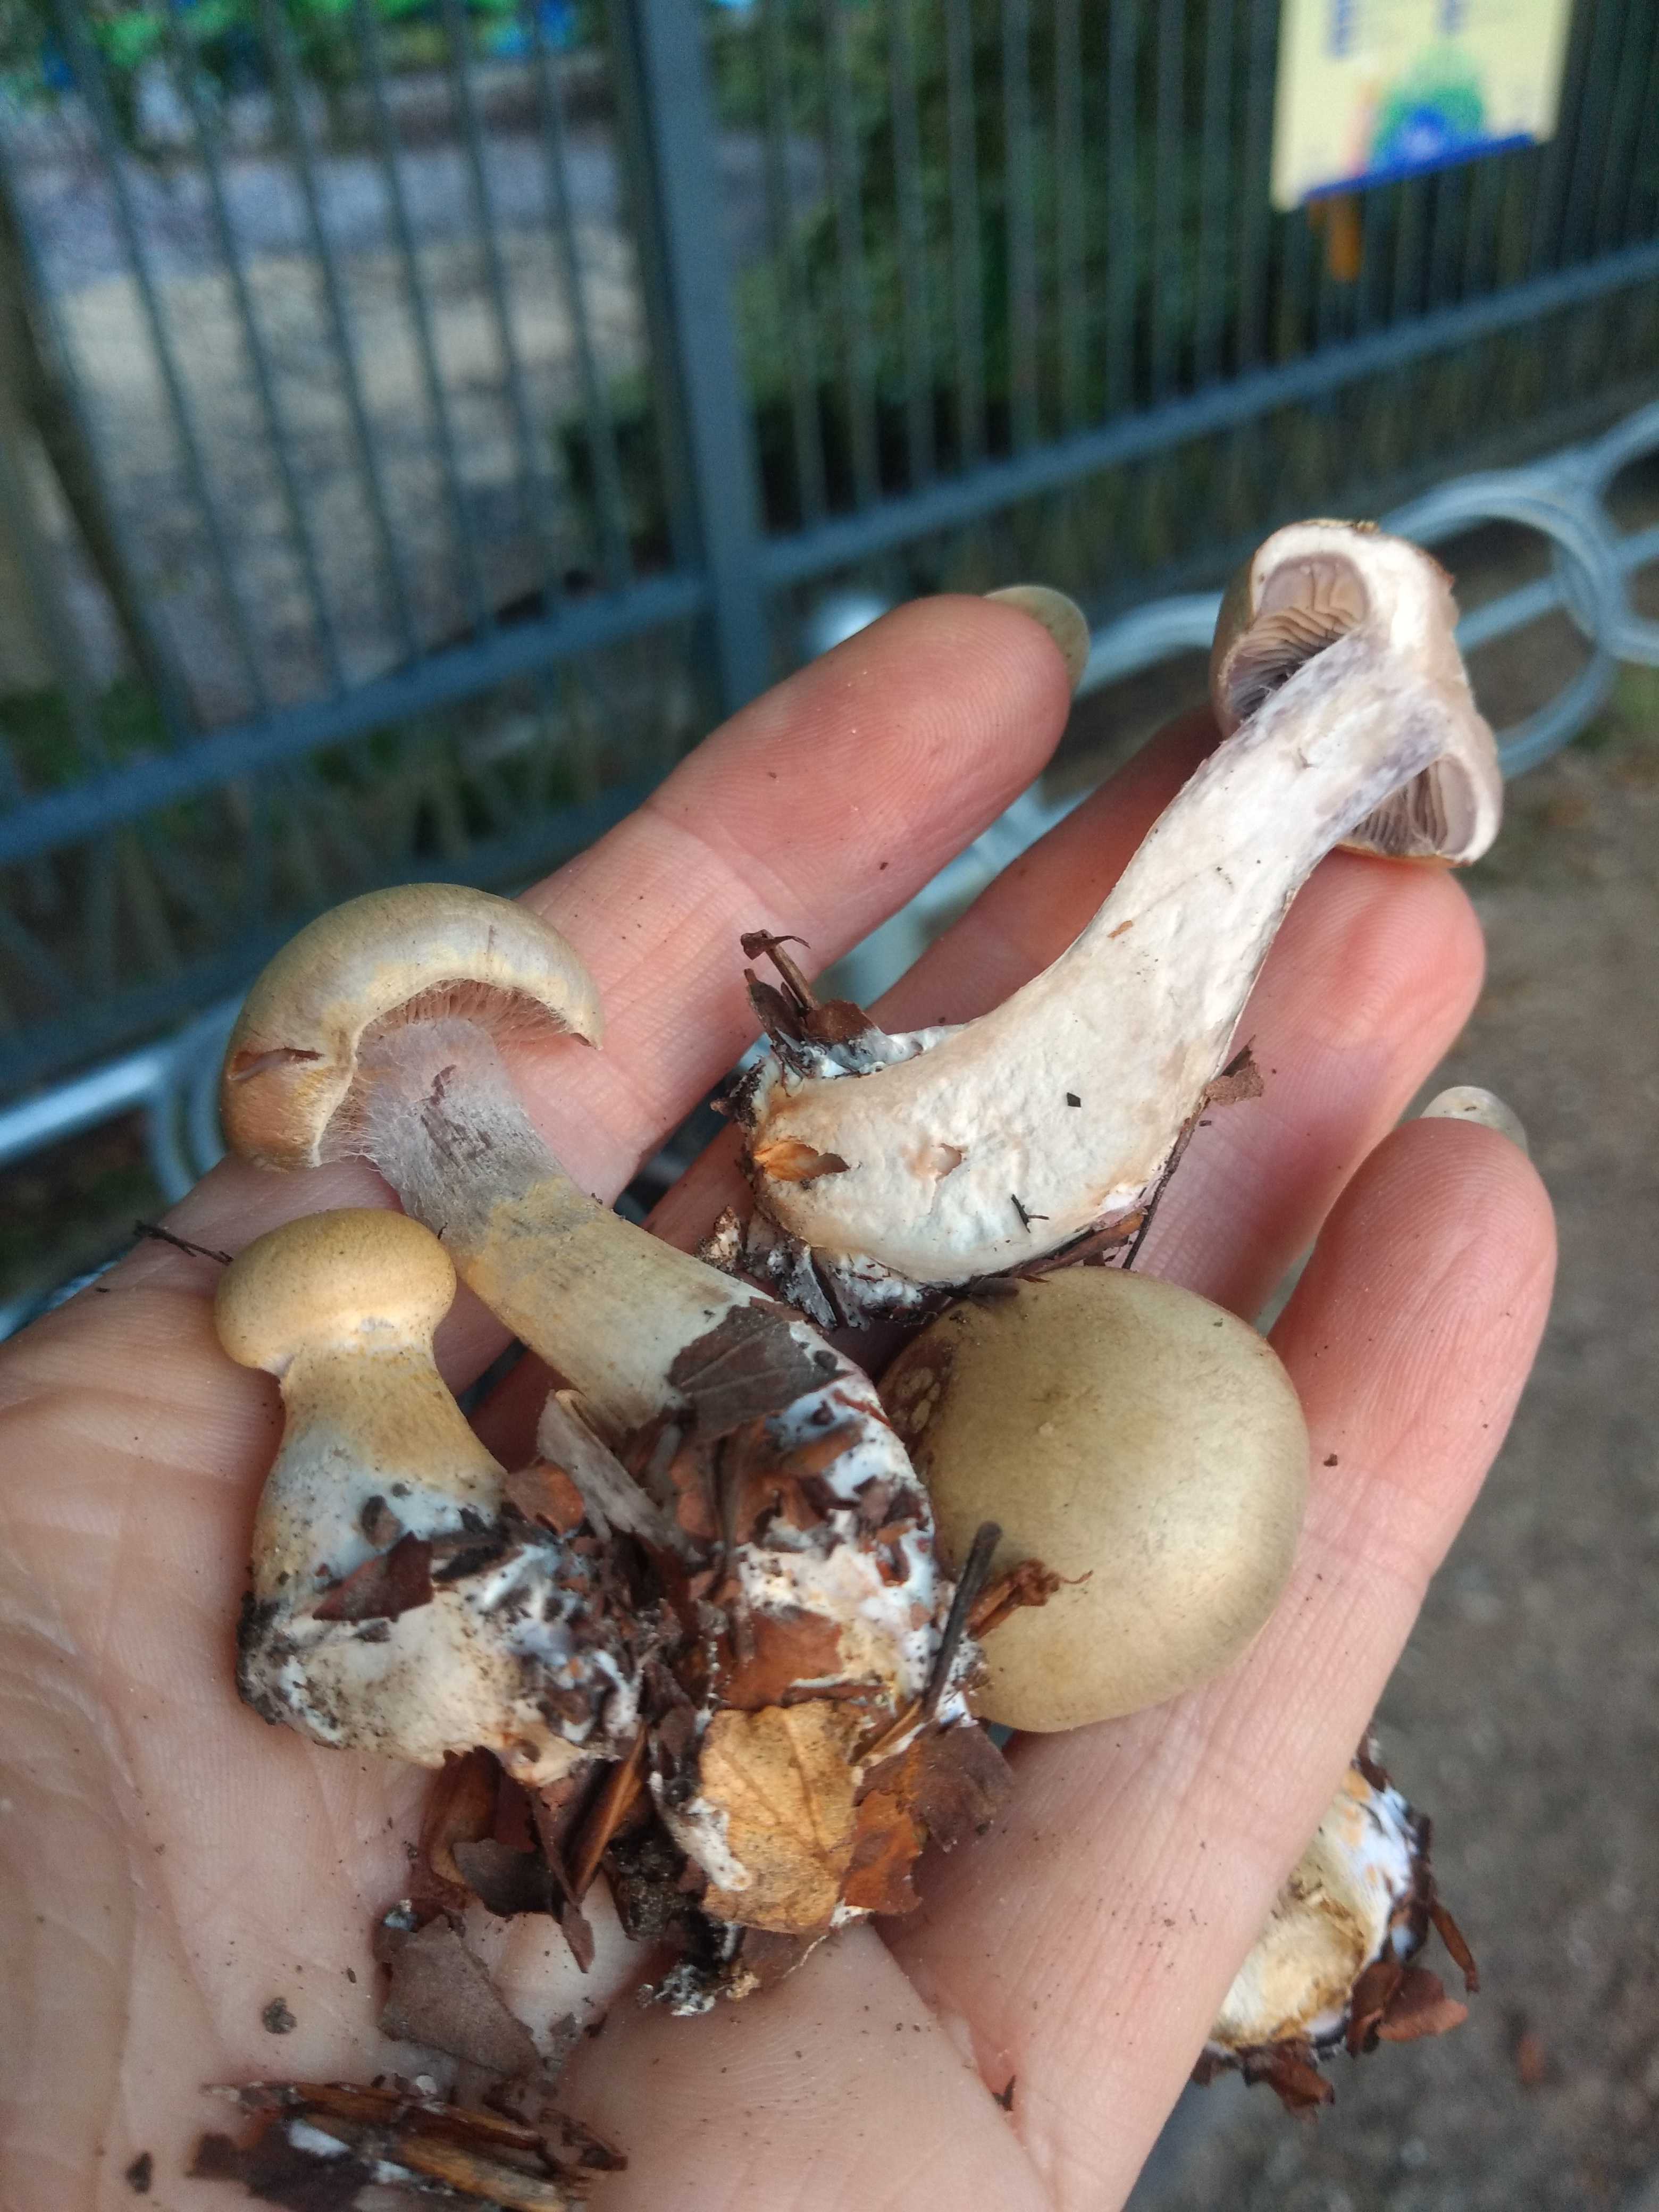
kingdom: Fungi
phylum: Basidiomycota
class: Agaricomycetes
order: Agaricales
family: Cortinariaceae
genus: Cortinarius
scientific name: Cortinarius
